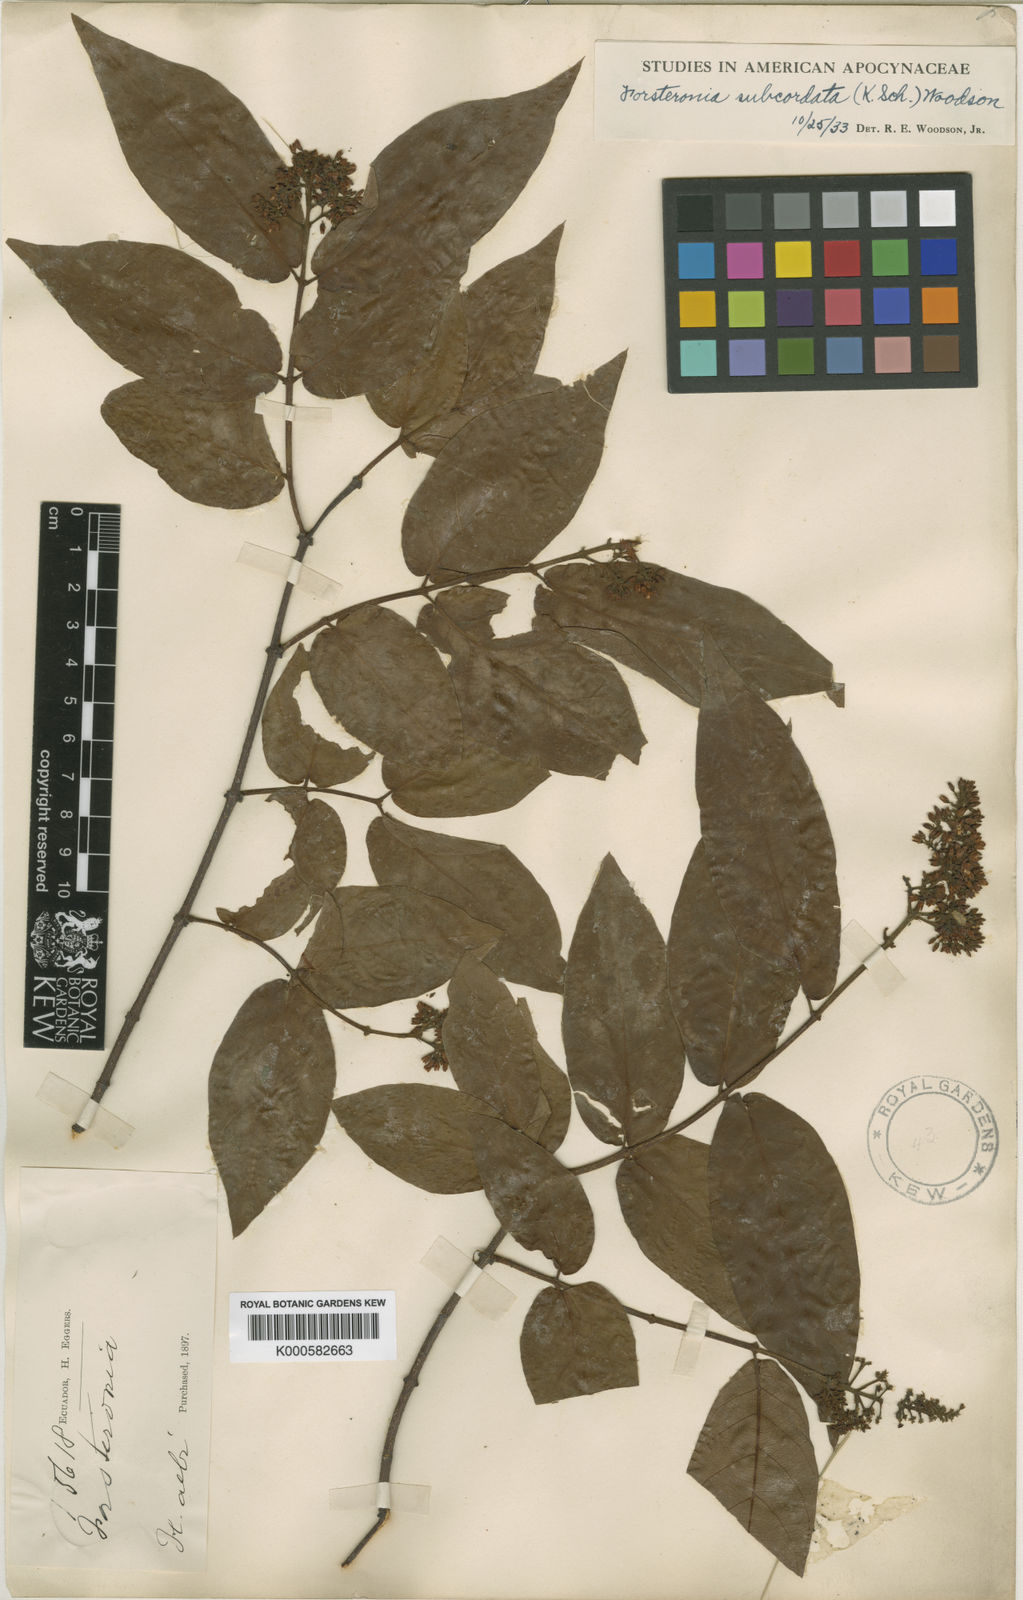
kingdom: Plantae
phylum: Tracheophyta
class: Magnoliopsida
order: Gentianales
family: Apocynaceae
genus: Forsteronia
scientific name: Forsteronia subcordata
